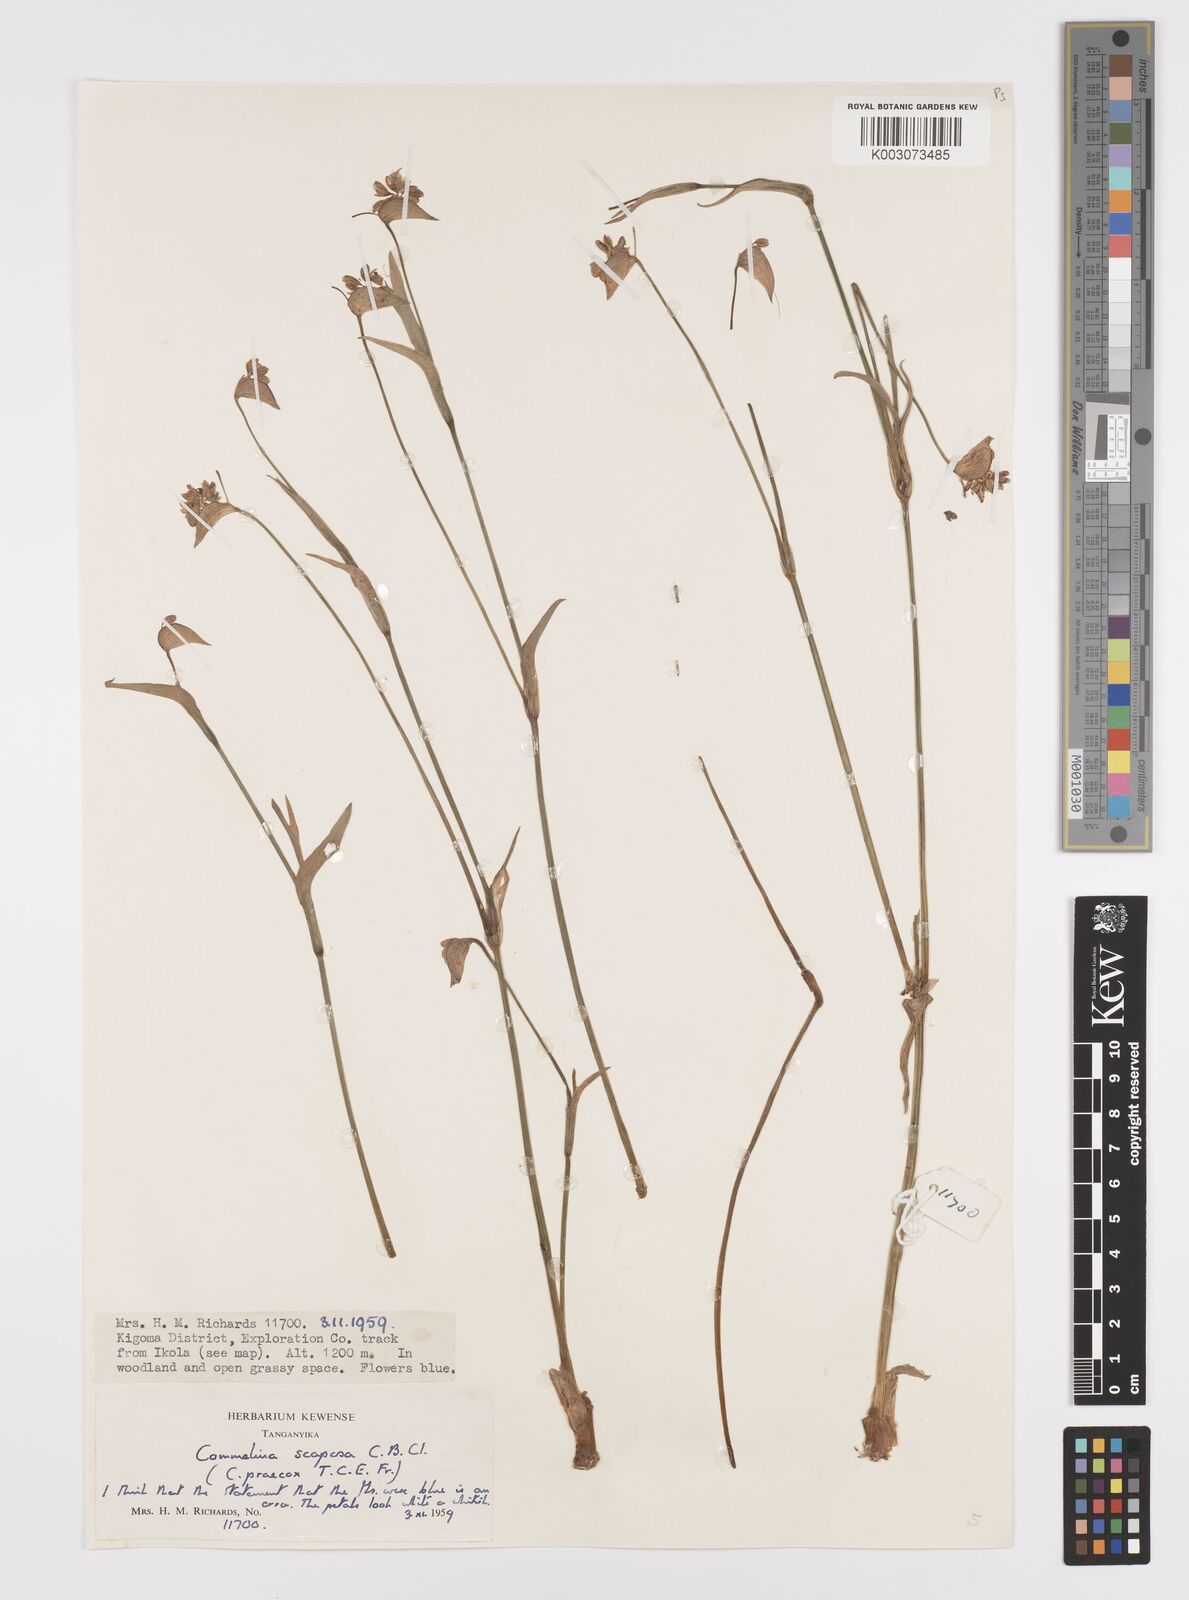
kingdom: Plantae
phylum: Tracheophyta
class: Liliopsida
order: Commelinales
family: Commelinaceae
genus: Commelina
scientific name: Commelina scaposa
